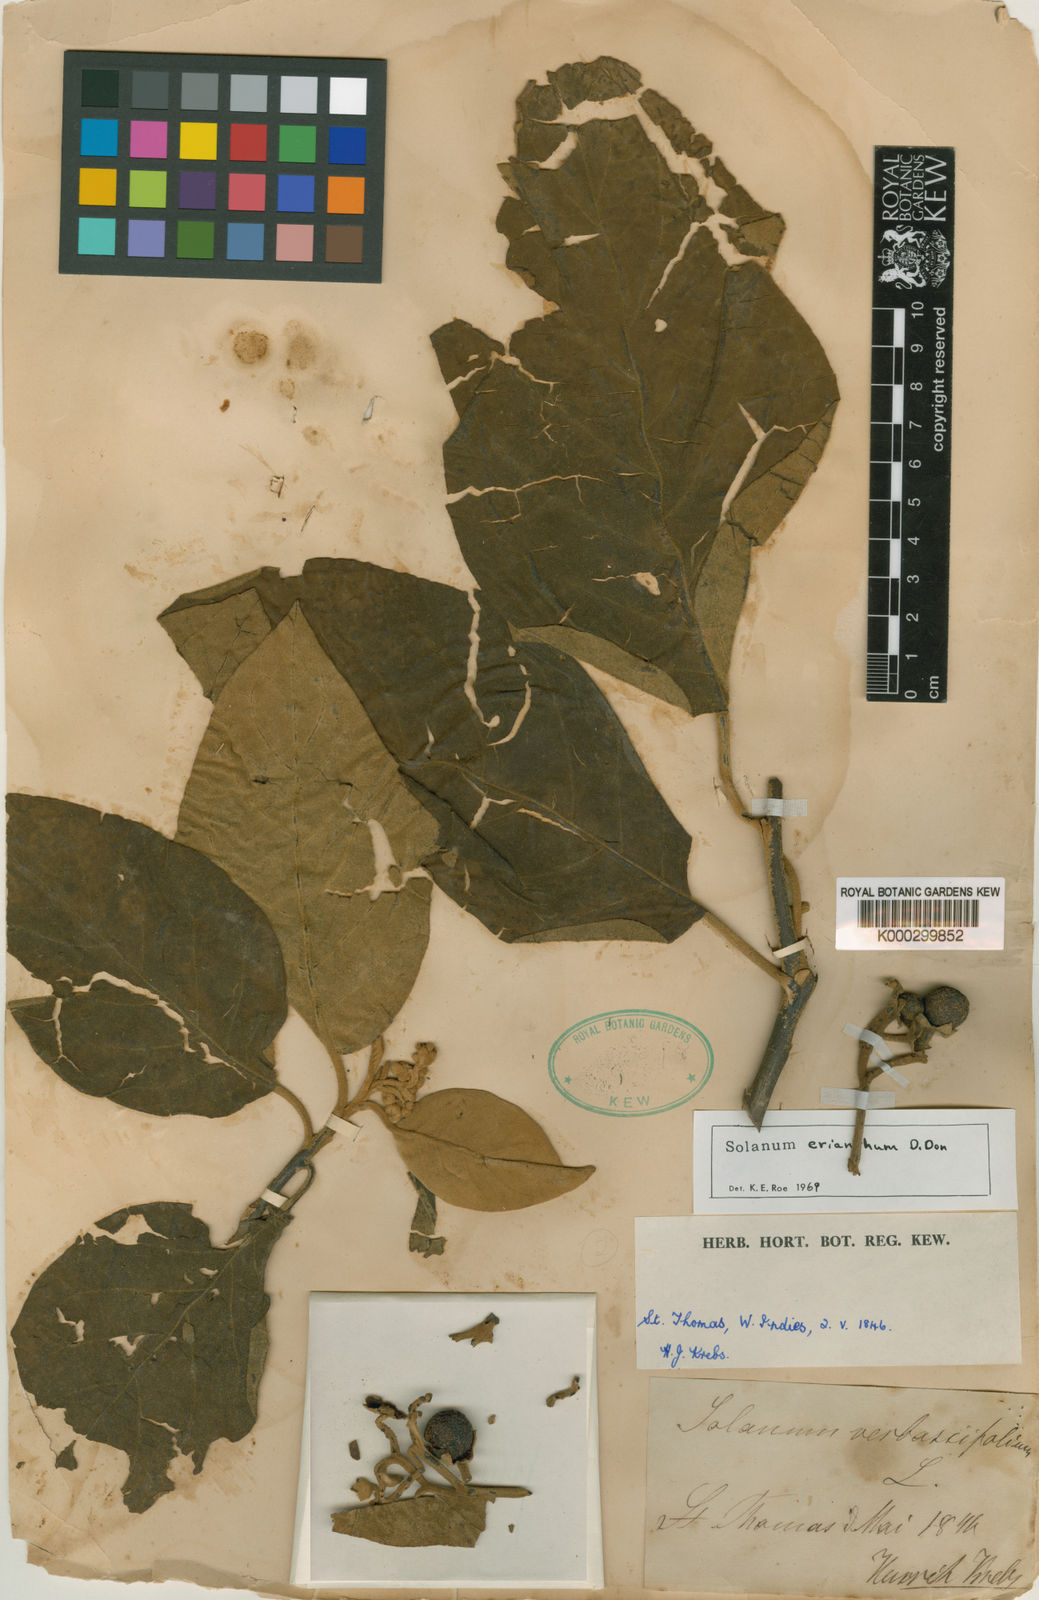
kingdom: Plantae
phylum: Tracheophyta
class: Magnoliopsida
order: Solanales
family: Solanaceae
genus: Solanum
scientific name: Solanum erianthum
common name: Tobacco-tree
